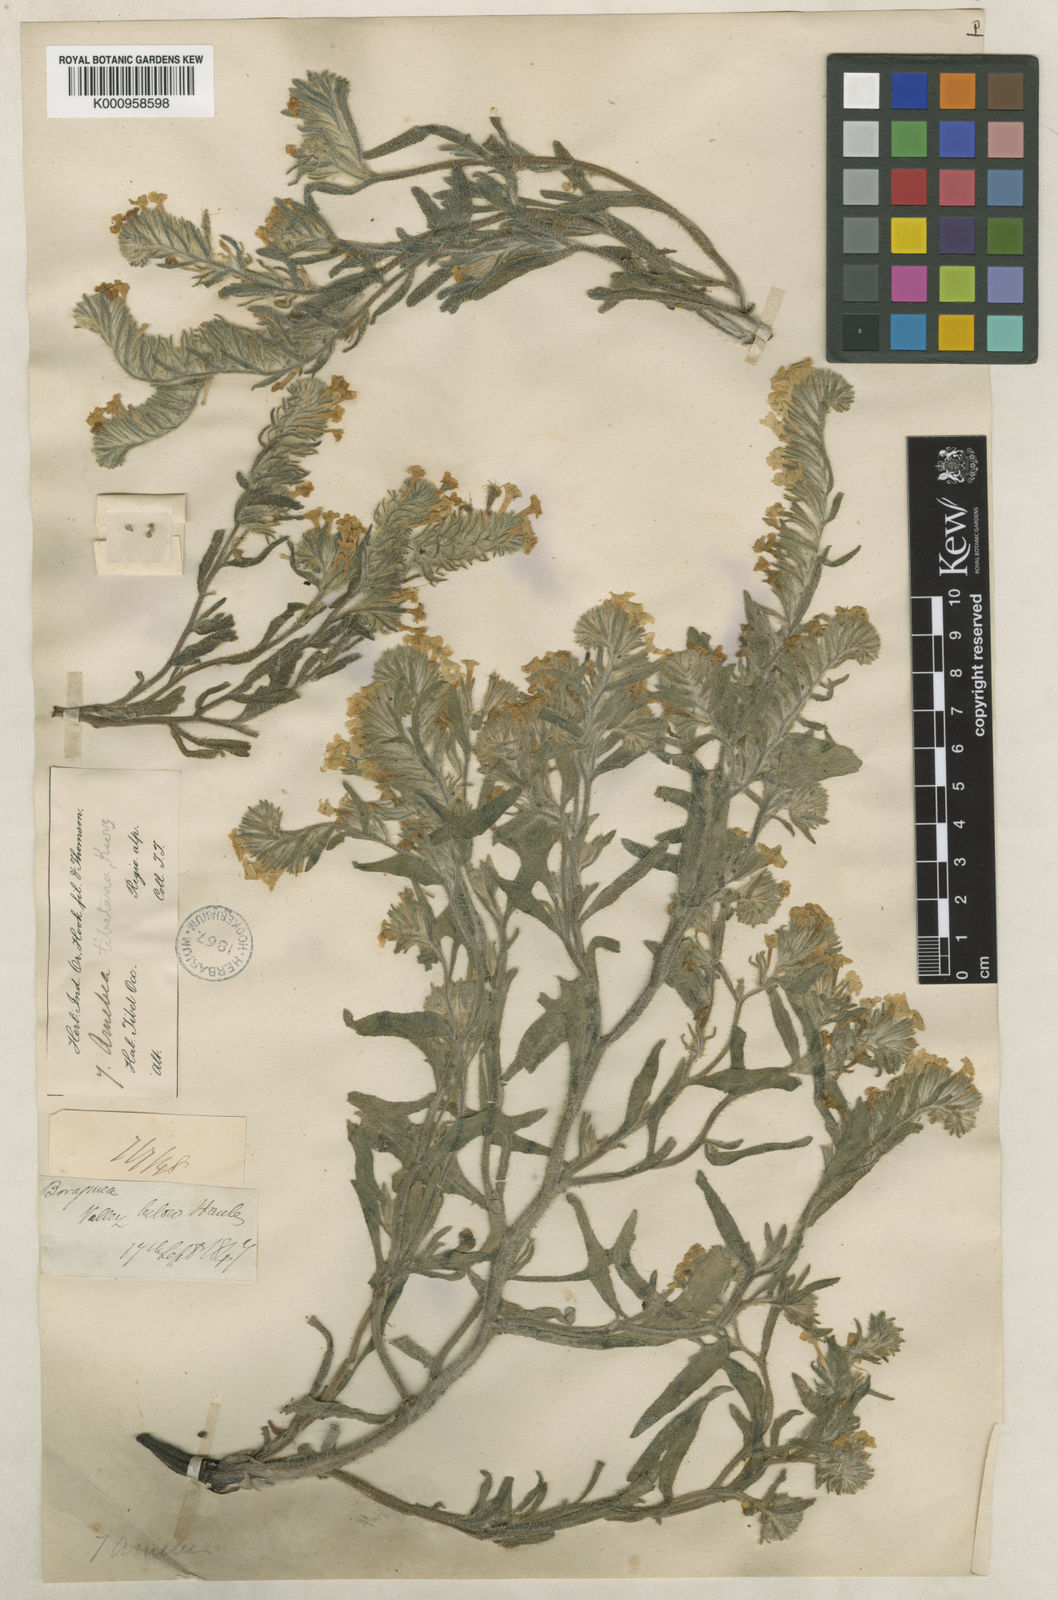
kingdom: Plantae
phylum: Tracheophyta
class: Magnoliopsida
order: Boraginales
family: Boraginaceae
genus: Arnebia
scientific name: Arnebia guttata
